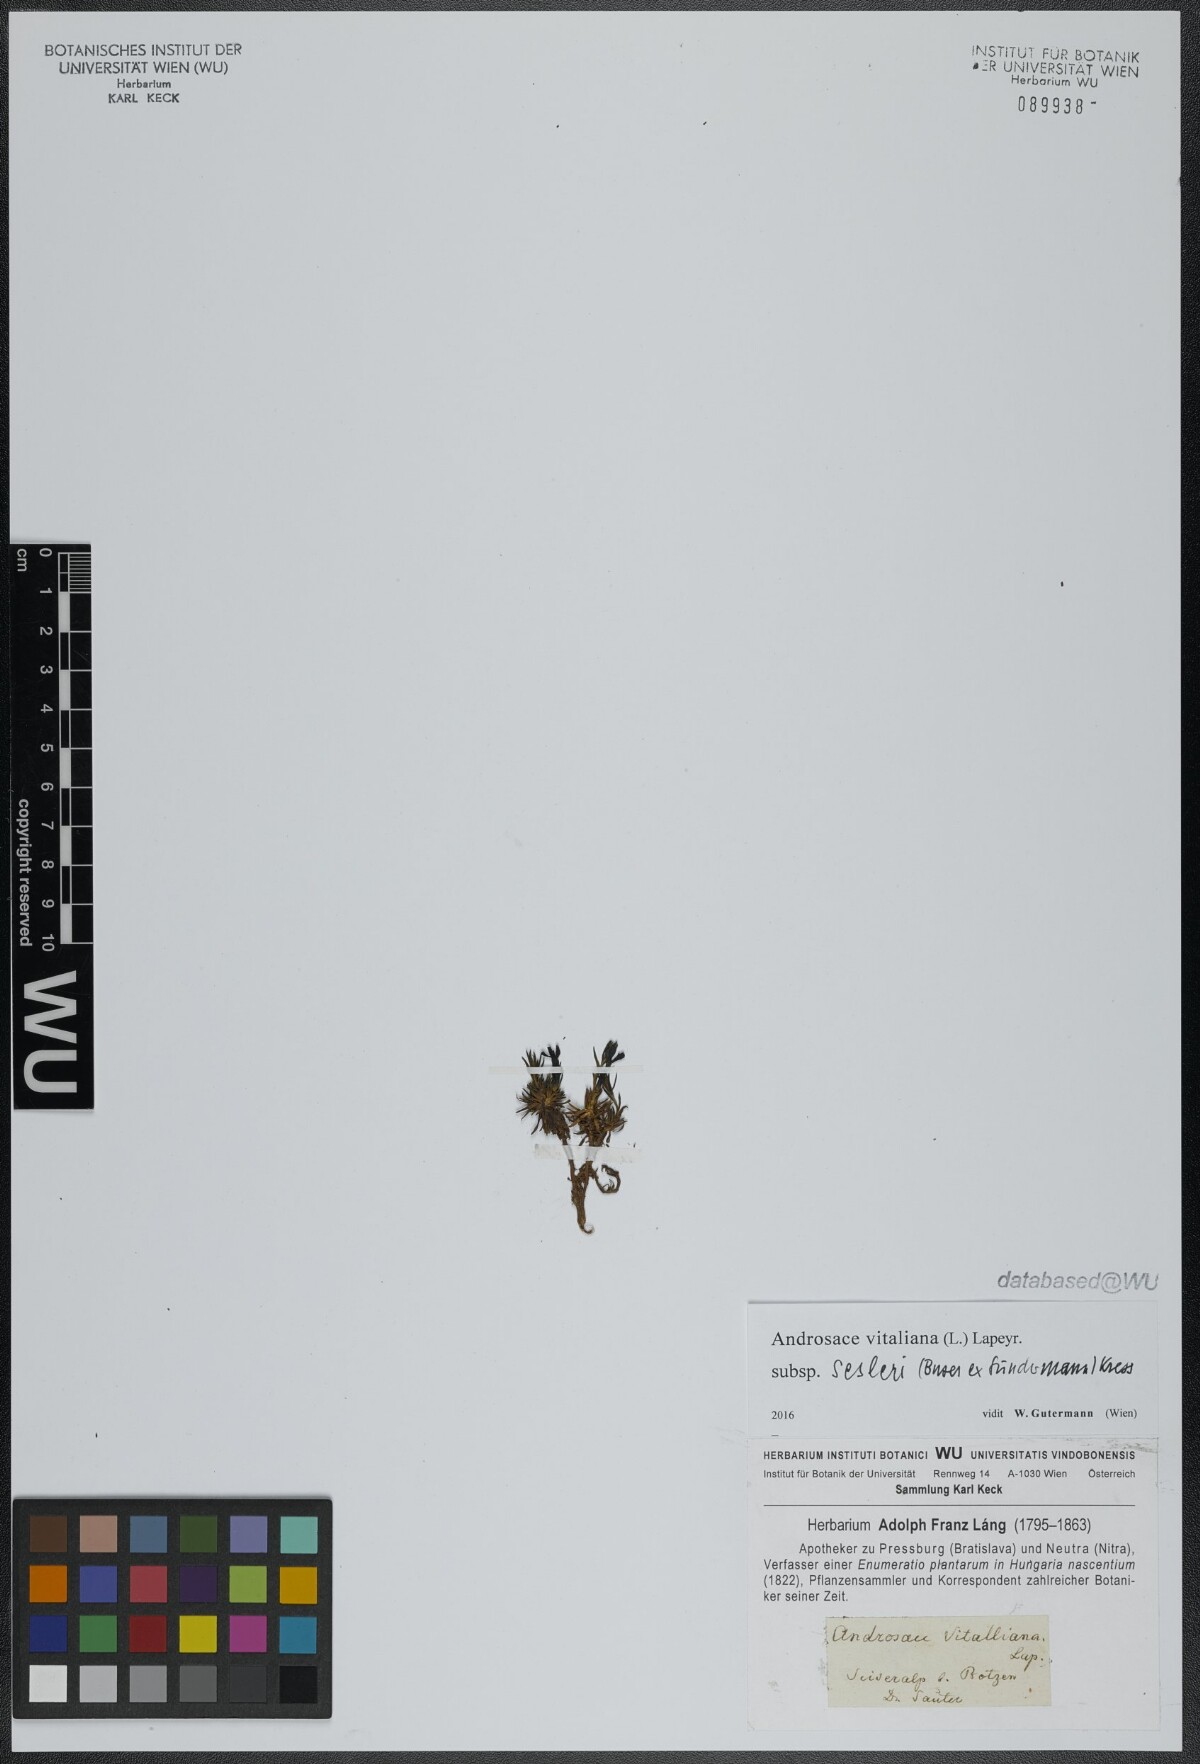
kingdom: Plantae
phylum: Tracheophyta
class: Magnoliopsida
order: Ericales
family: Primulaceae
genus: Androsace
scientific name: Androsace vitaliana
